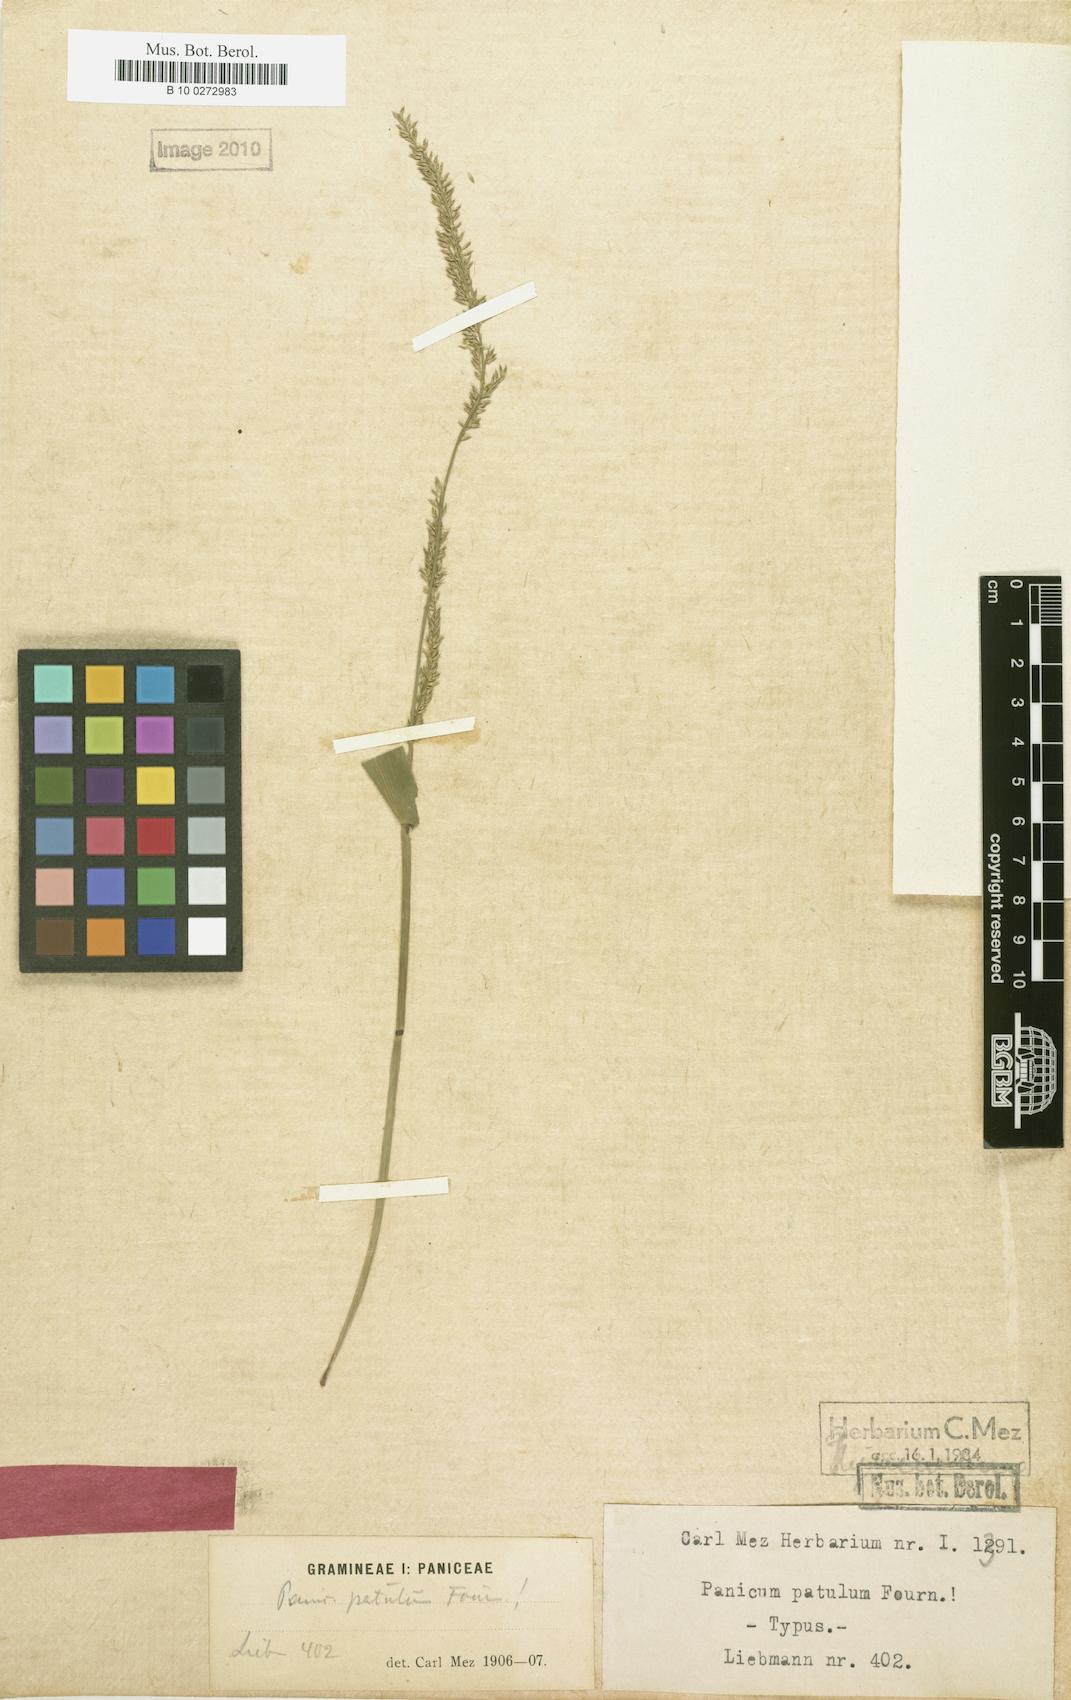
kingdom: Plantae
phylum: Tracheophyta
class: Liliopsida
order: Poales
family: Poaceae
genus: Hymenachne
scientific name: Hymenachne donacifolia
